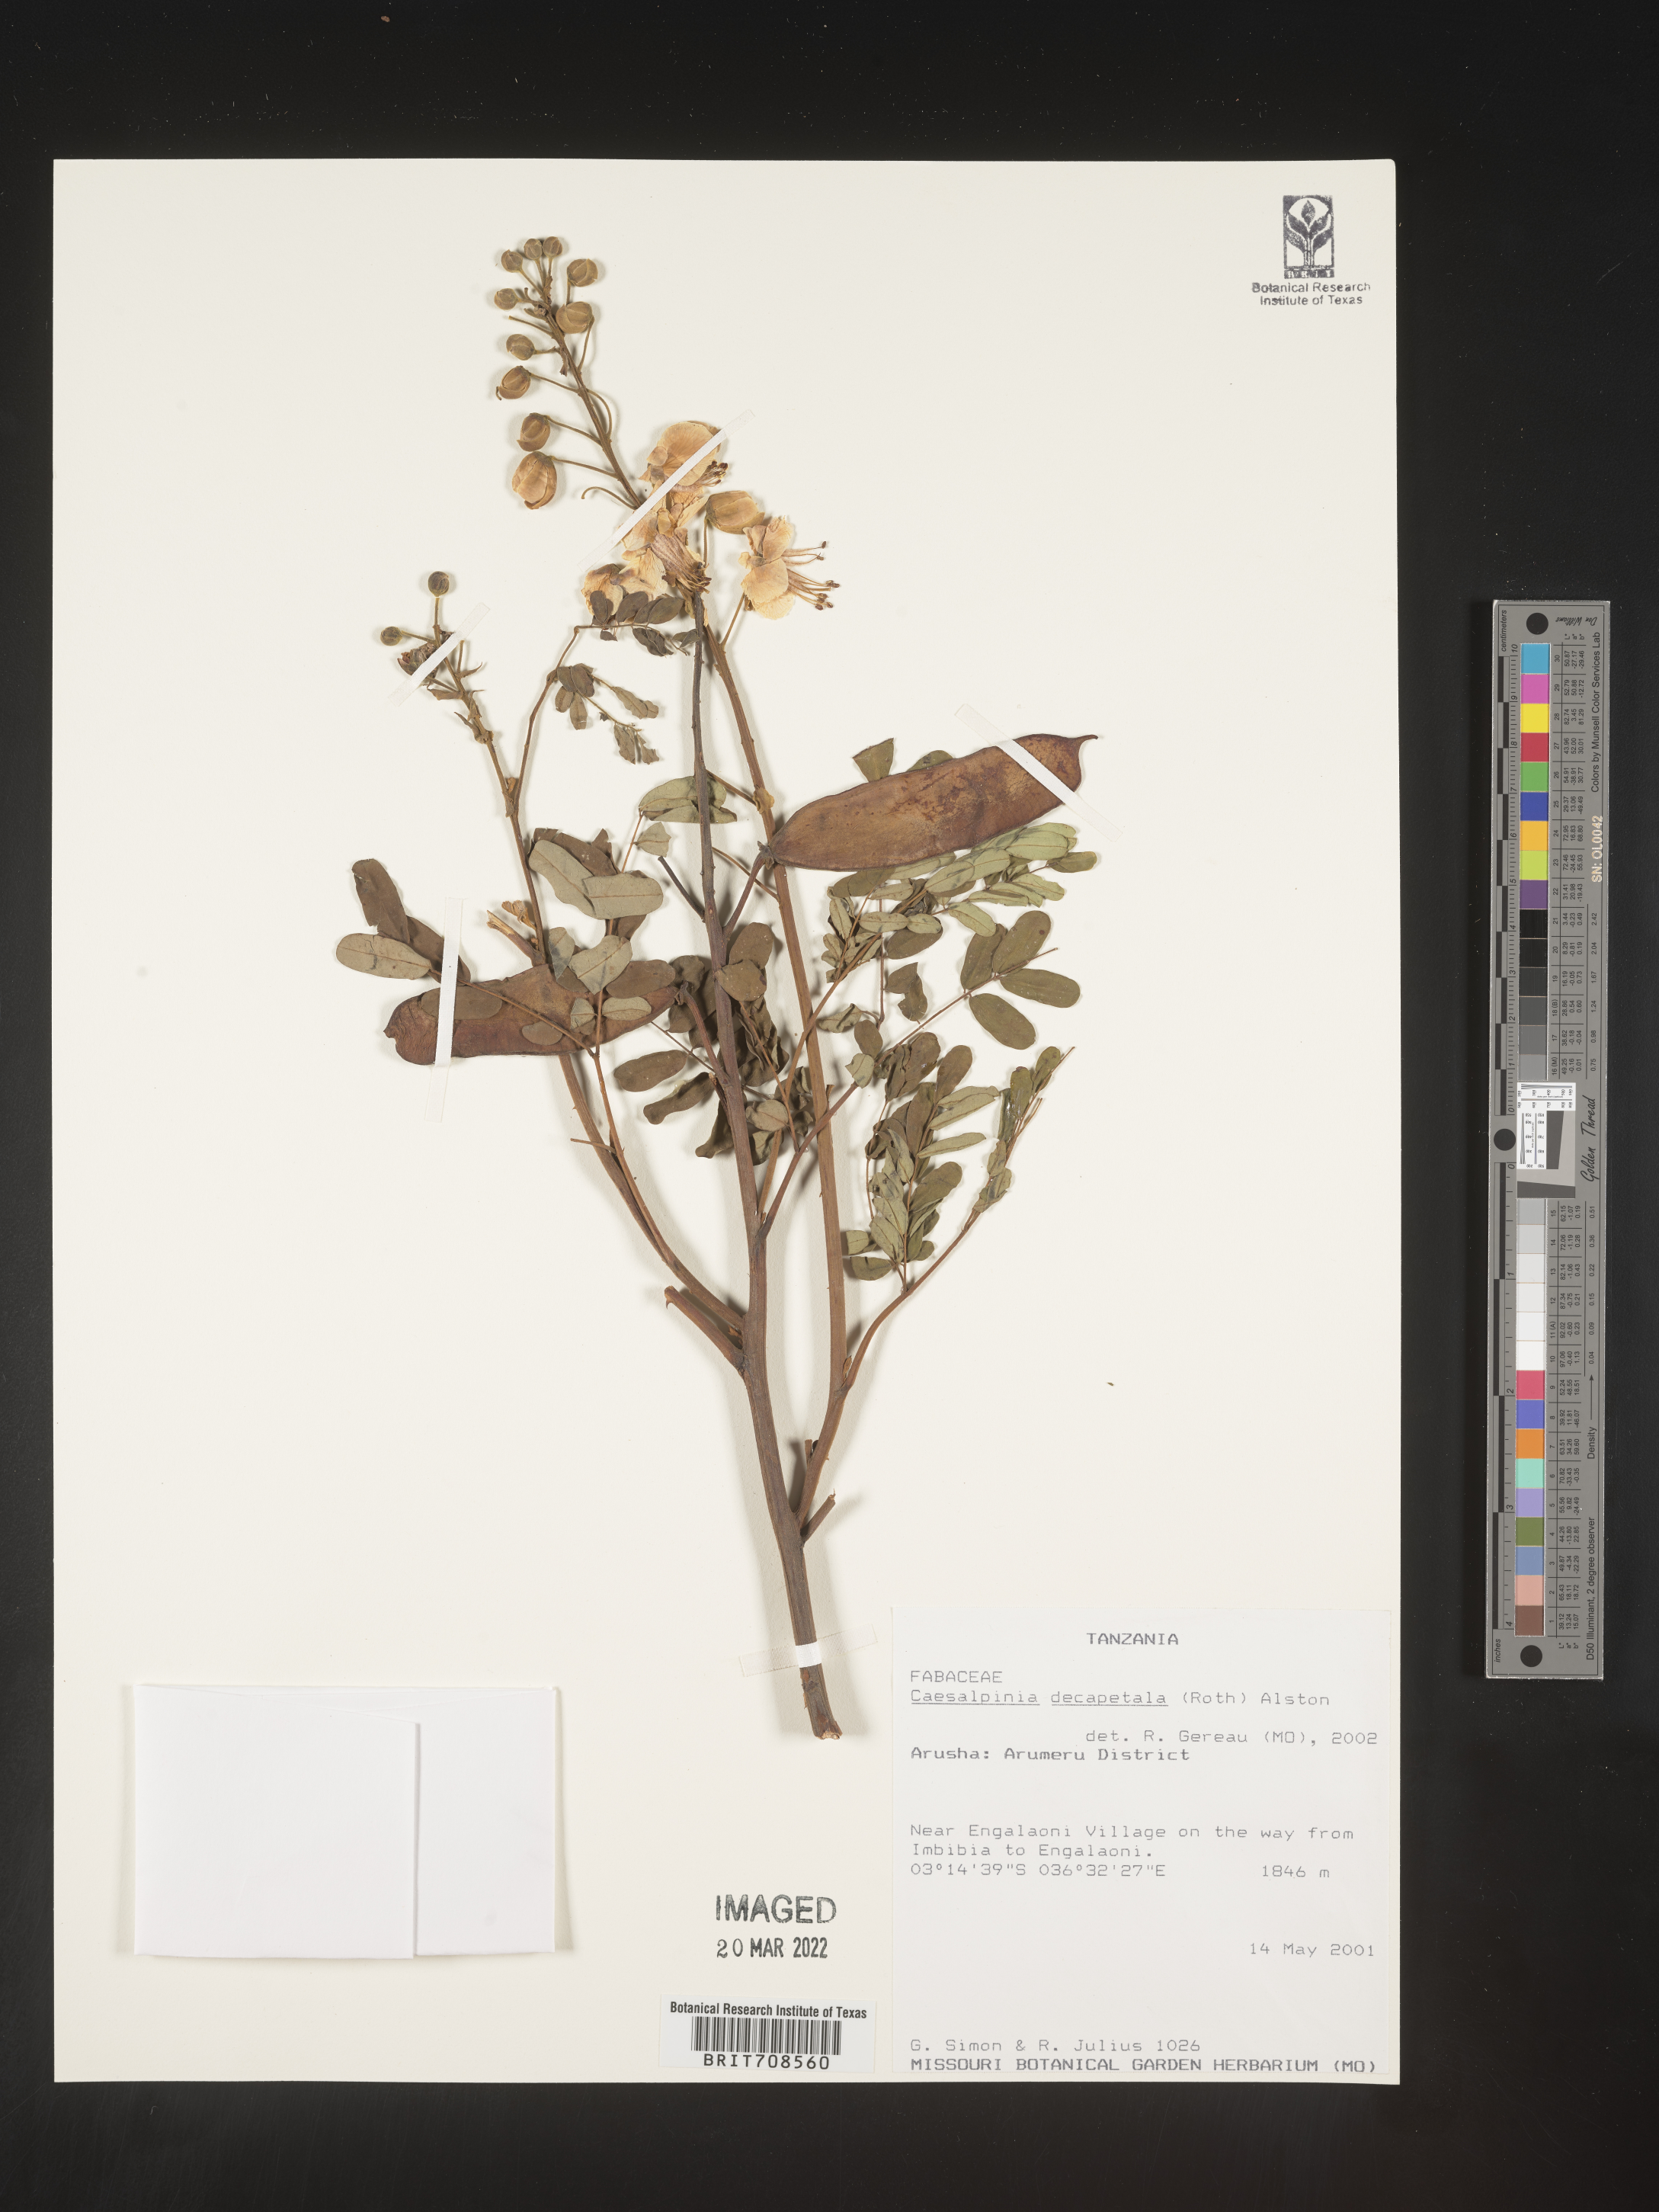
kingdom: Plantae
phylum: Tracheophyta
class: Magnoliopsida
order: Fabales
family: Fabaceae
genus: Caesalpinia
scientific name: Caesalpinia
